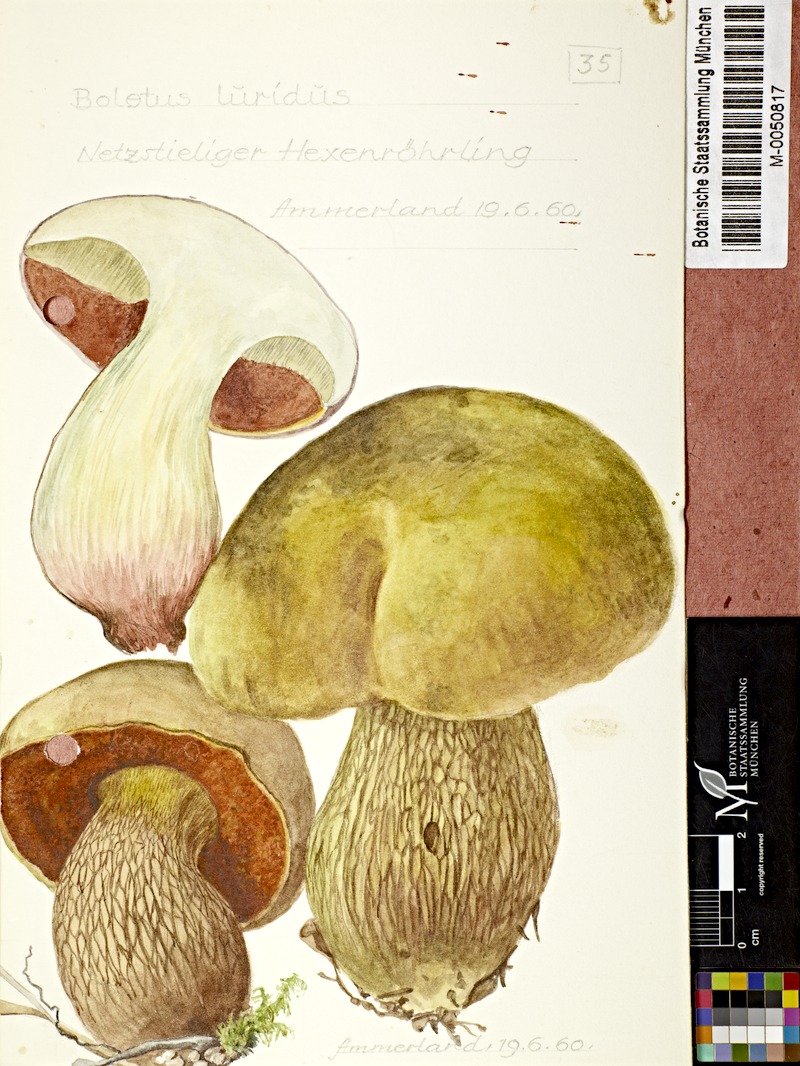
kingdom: Fungi
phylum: Basidiomycota
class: Agaricomycetes
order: Boletales
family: Boletaceae
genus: Suillellus
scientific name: Suillellus luridus
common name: Lurid bolete
